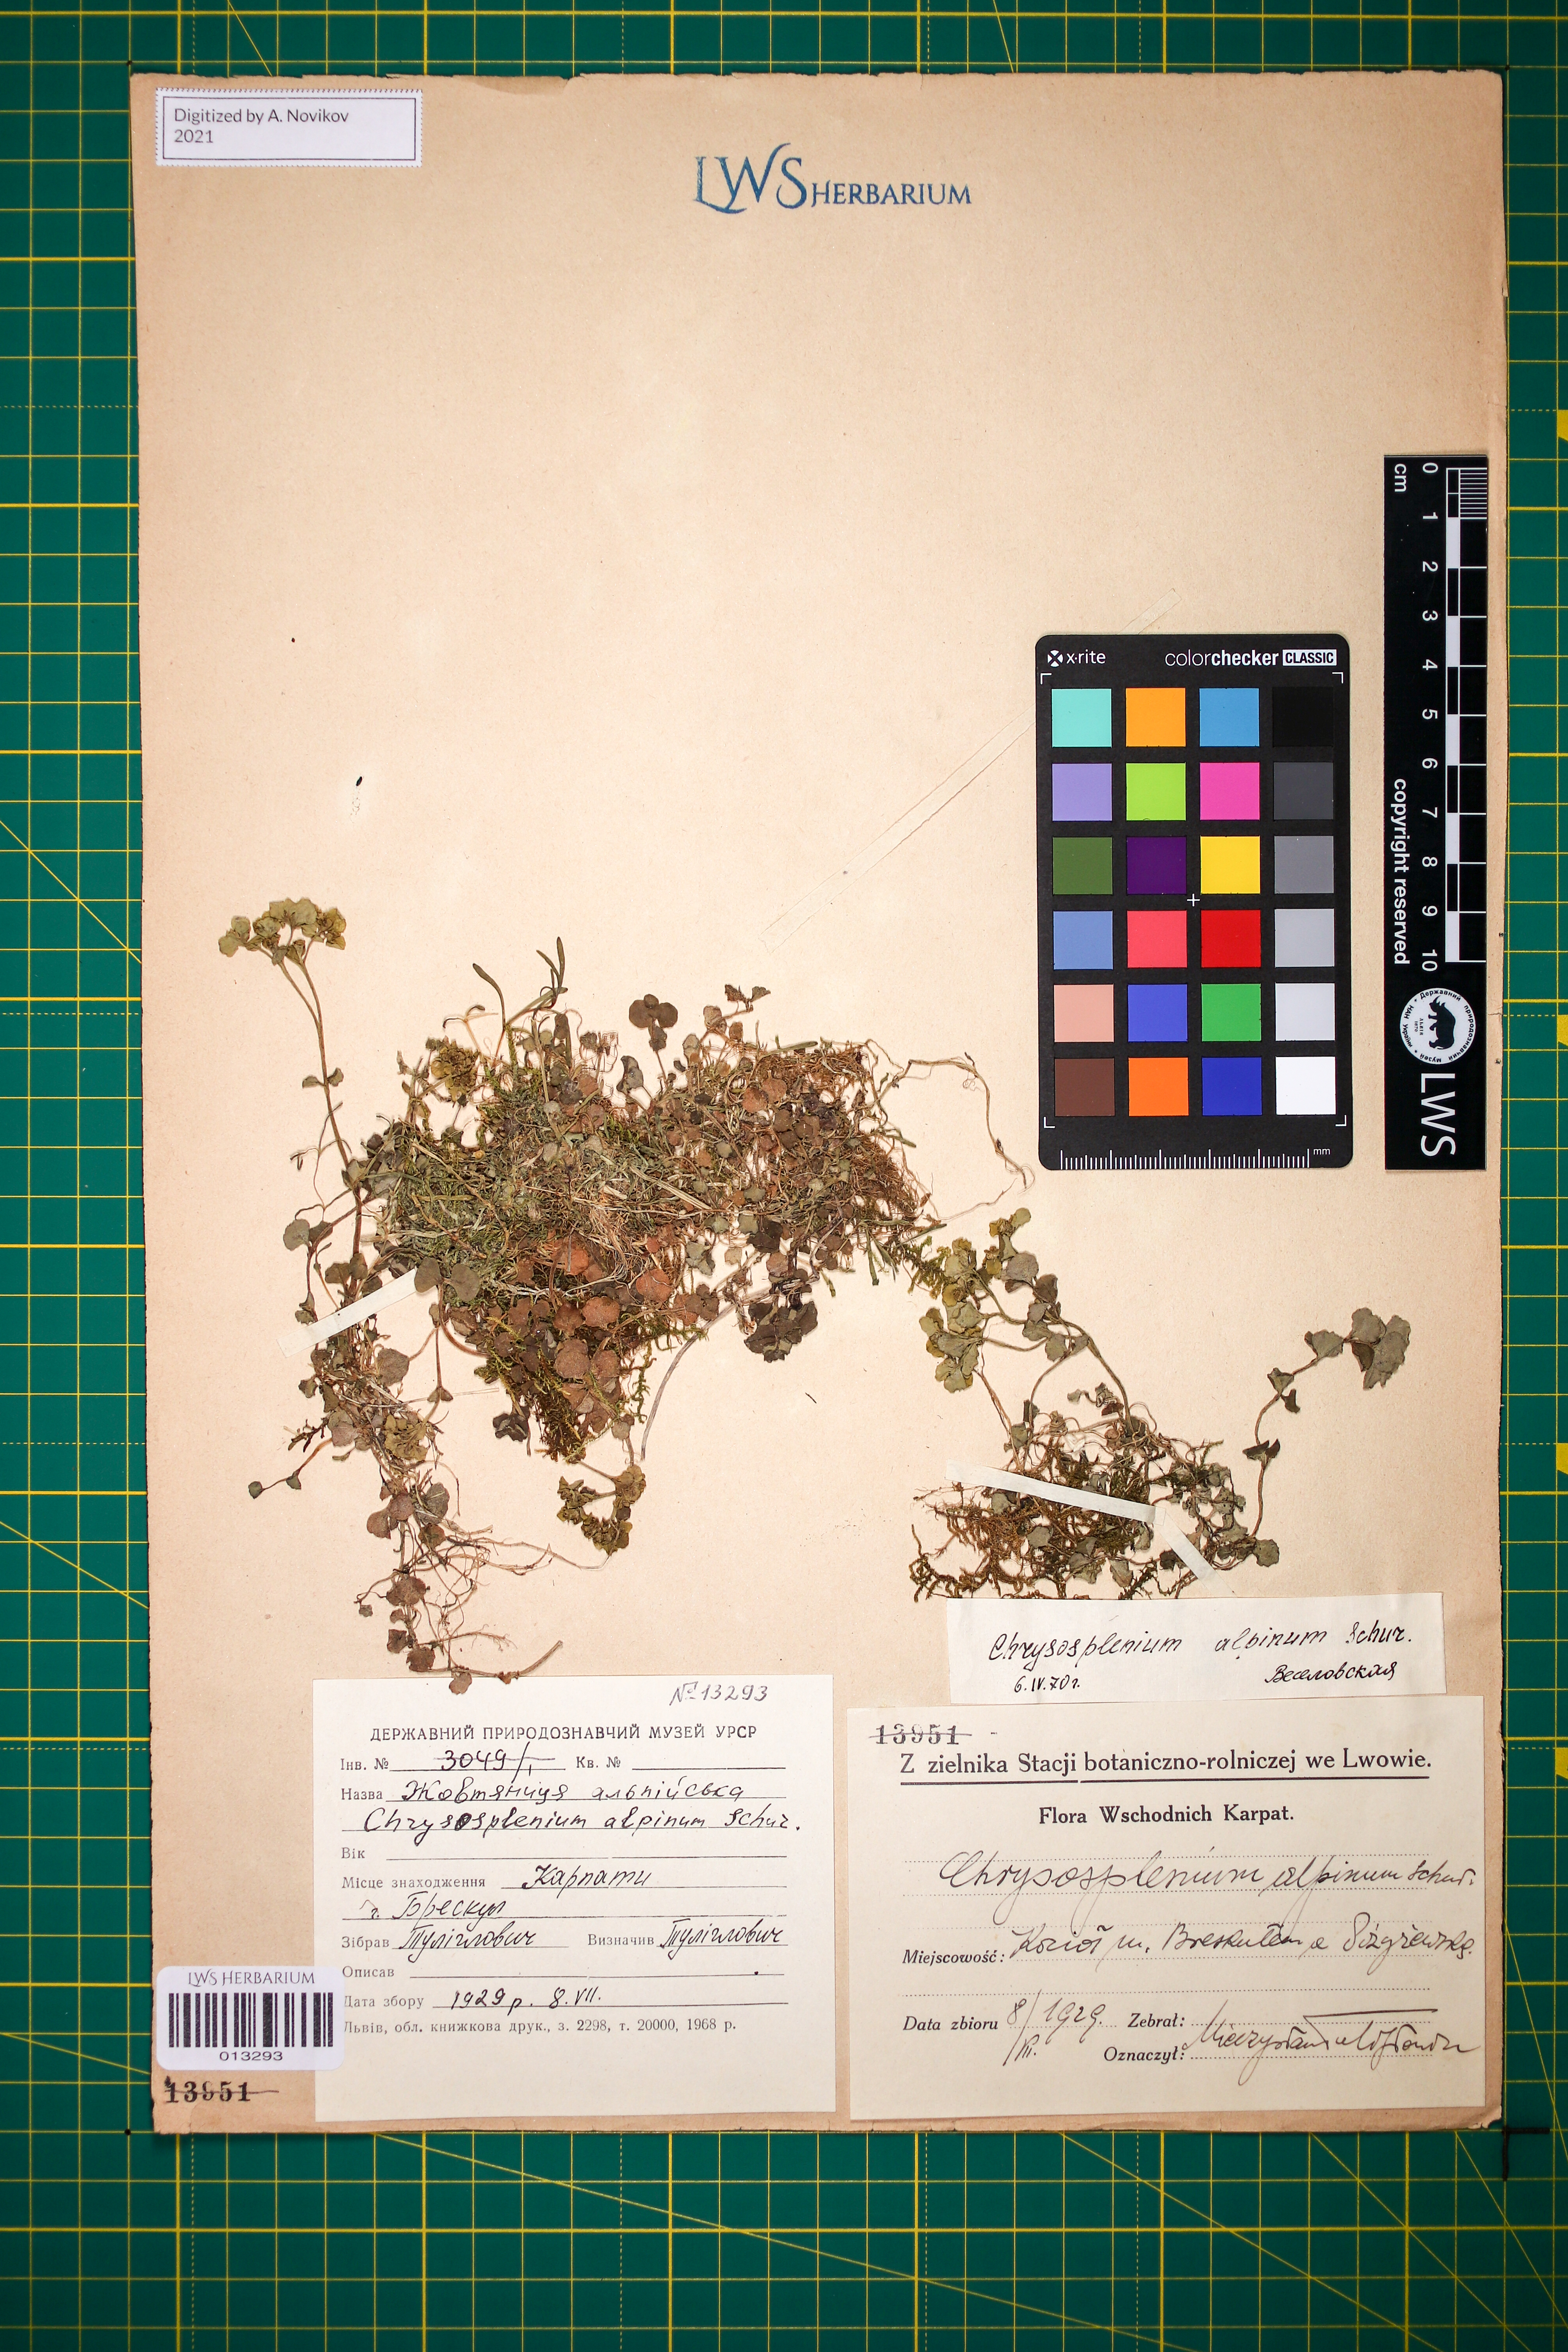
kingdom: Plantae
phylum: Tracheophyta
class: Magnoliopsida
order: Saxifragales
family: Saxifragaceae
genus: Chrysosplenium
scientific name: Chrysosplenium alpinum
